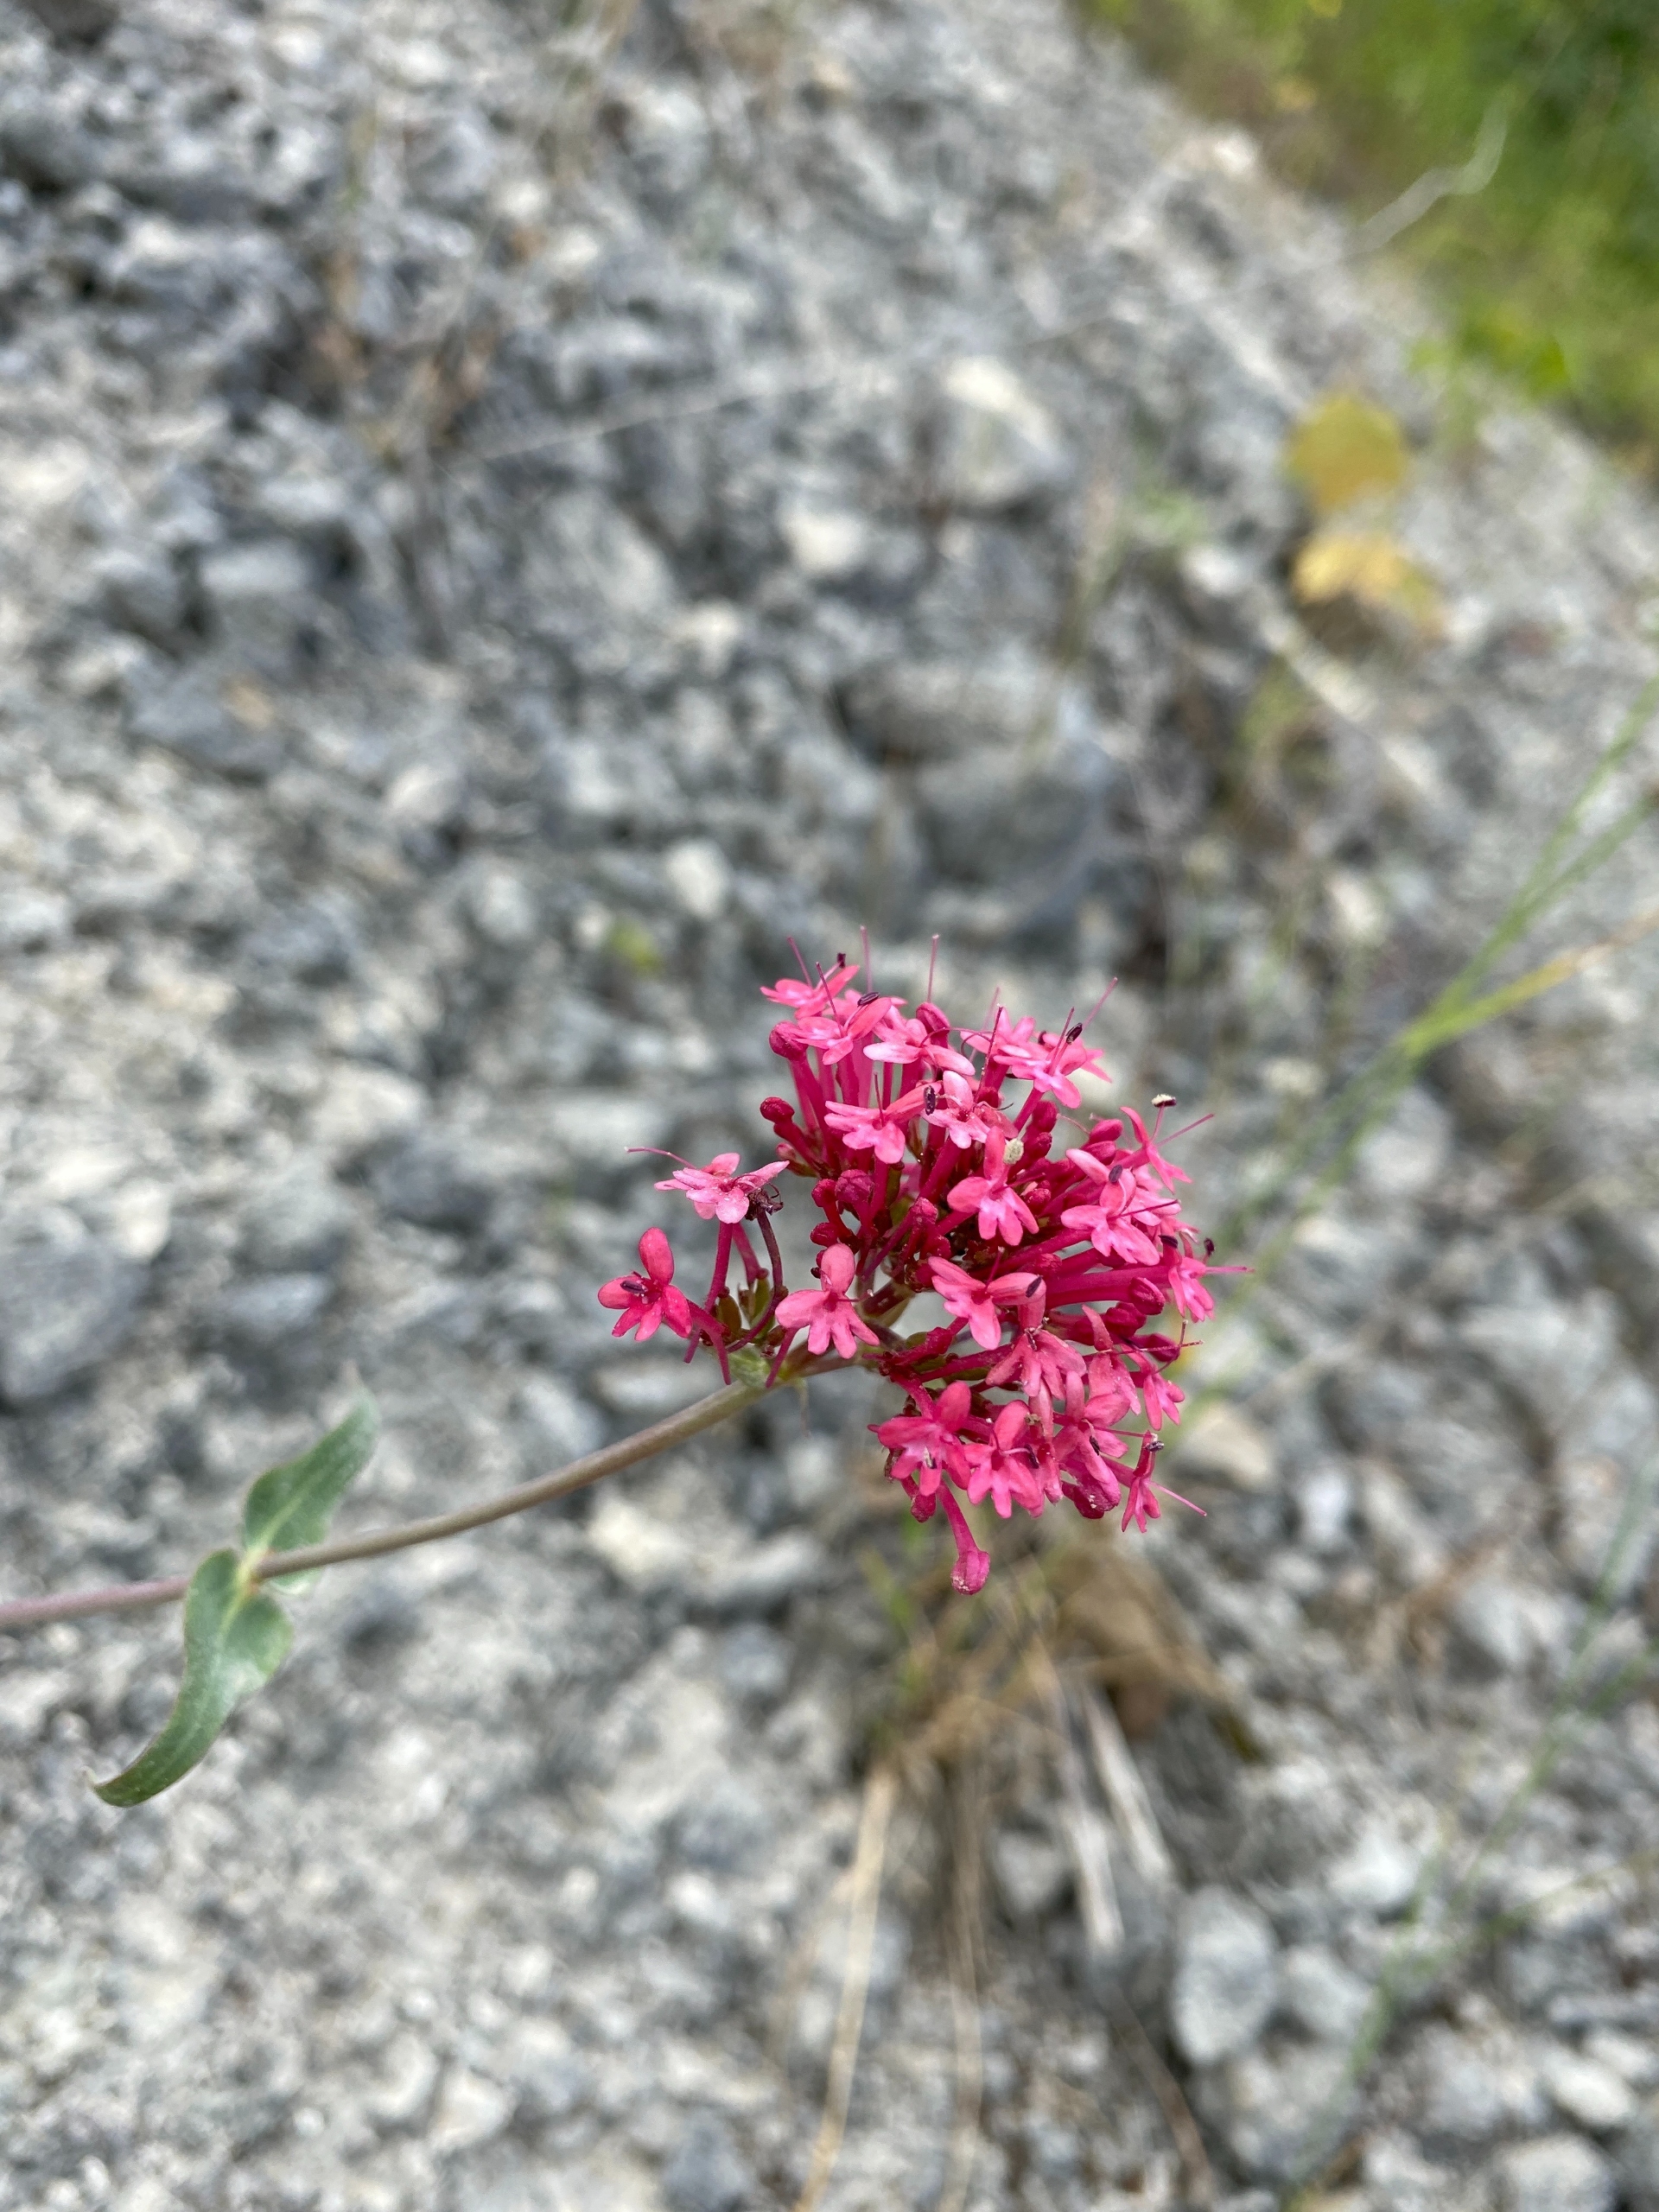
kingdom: Plantae
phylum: Tracheophyta
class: Magnoliopsida
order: Dipsacales
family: Caprifoliaceae
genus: Centranthus
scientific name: Centranthus ruber
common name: Sporebaldrian
